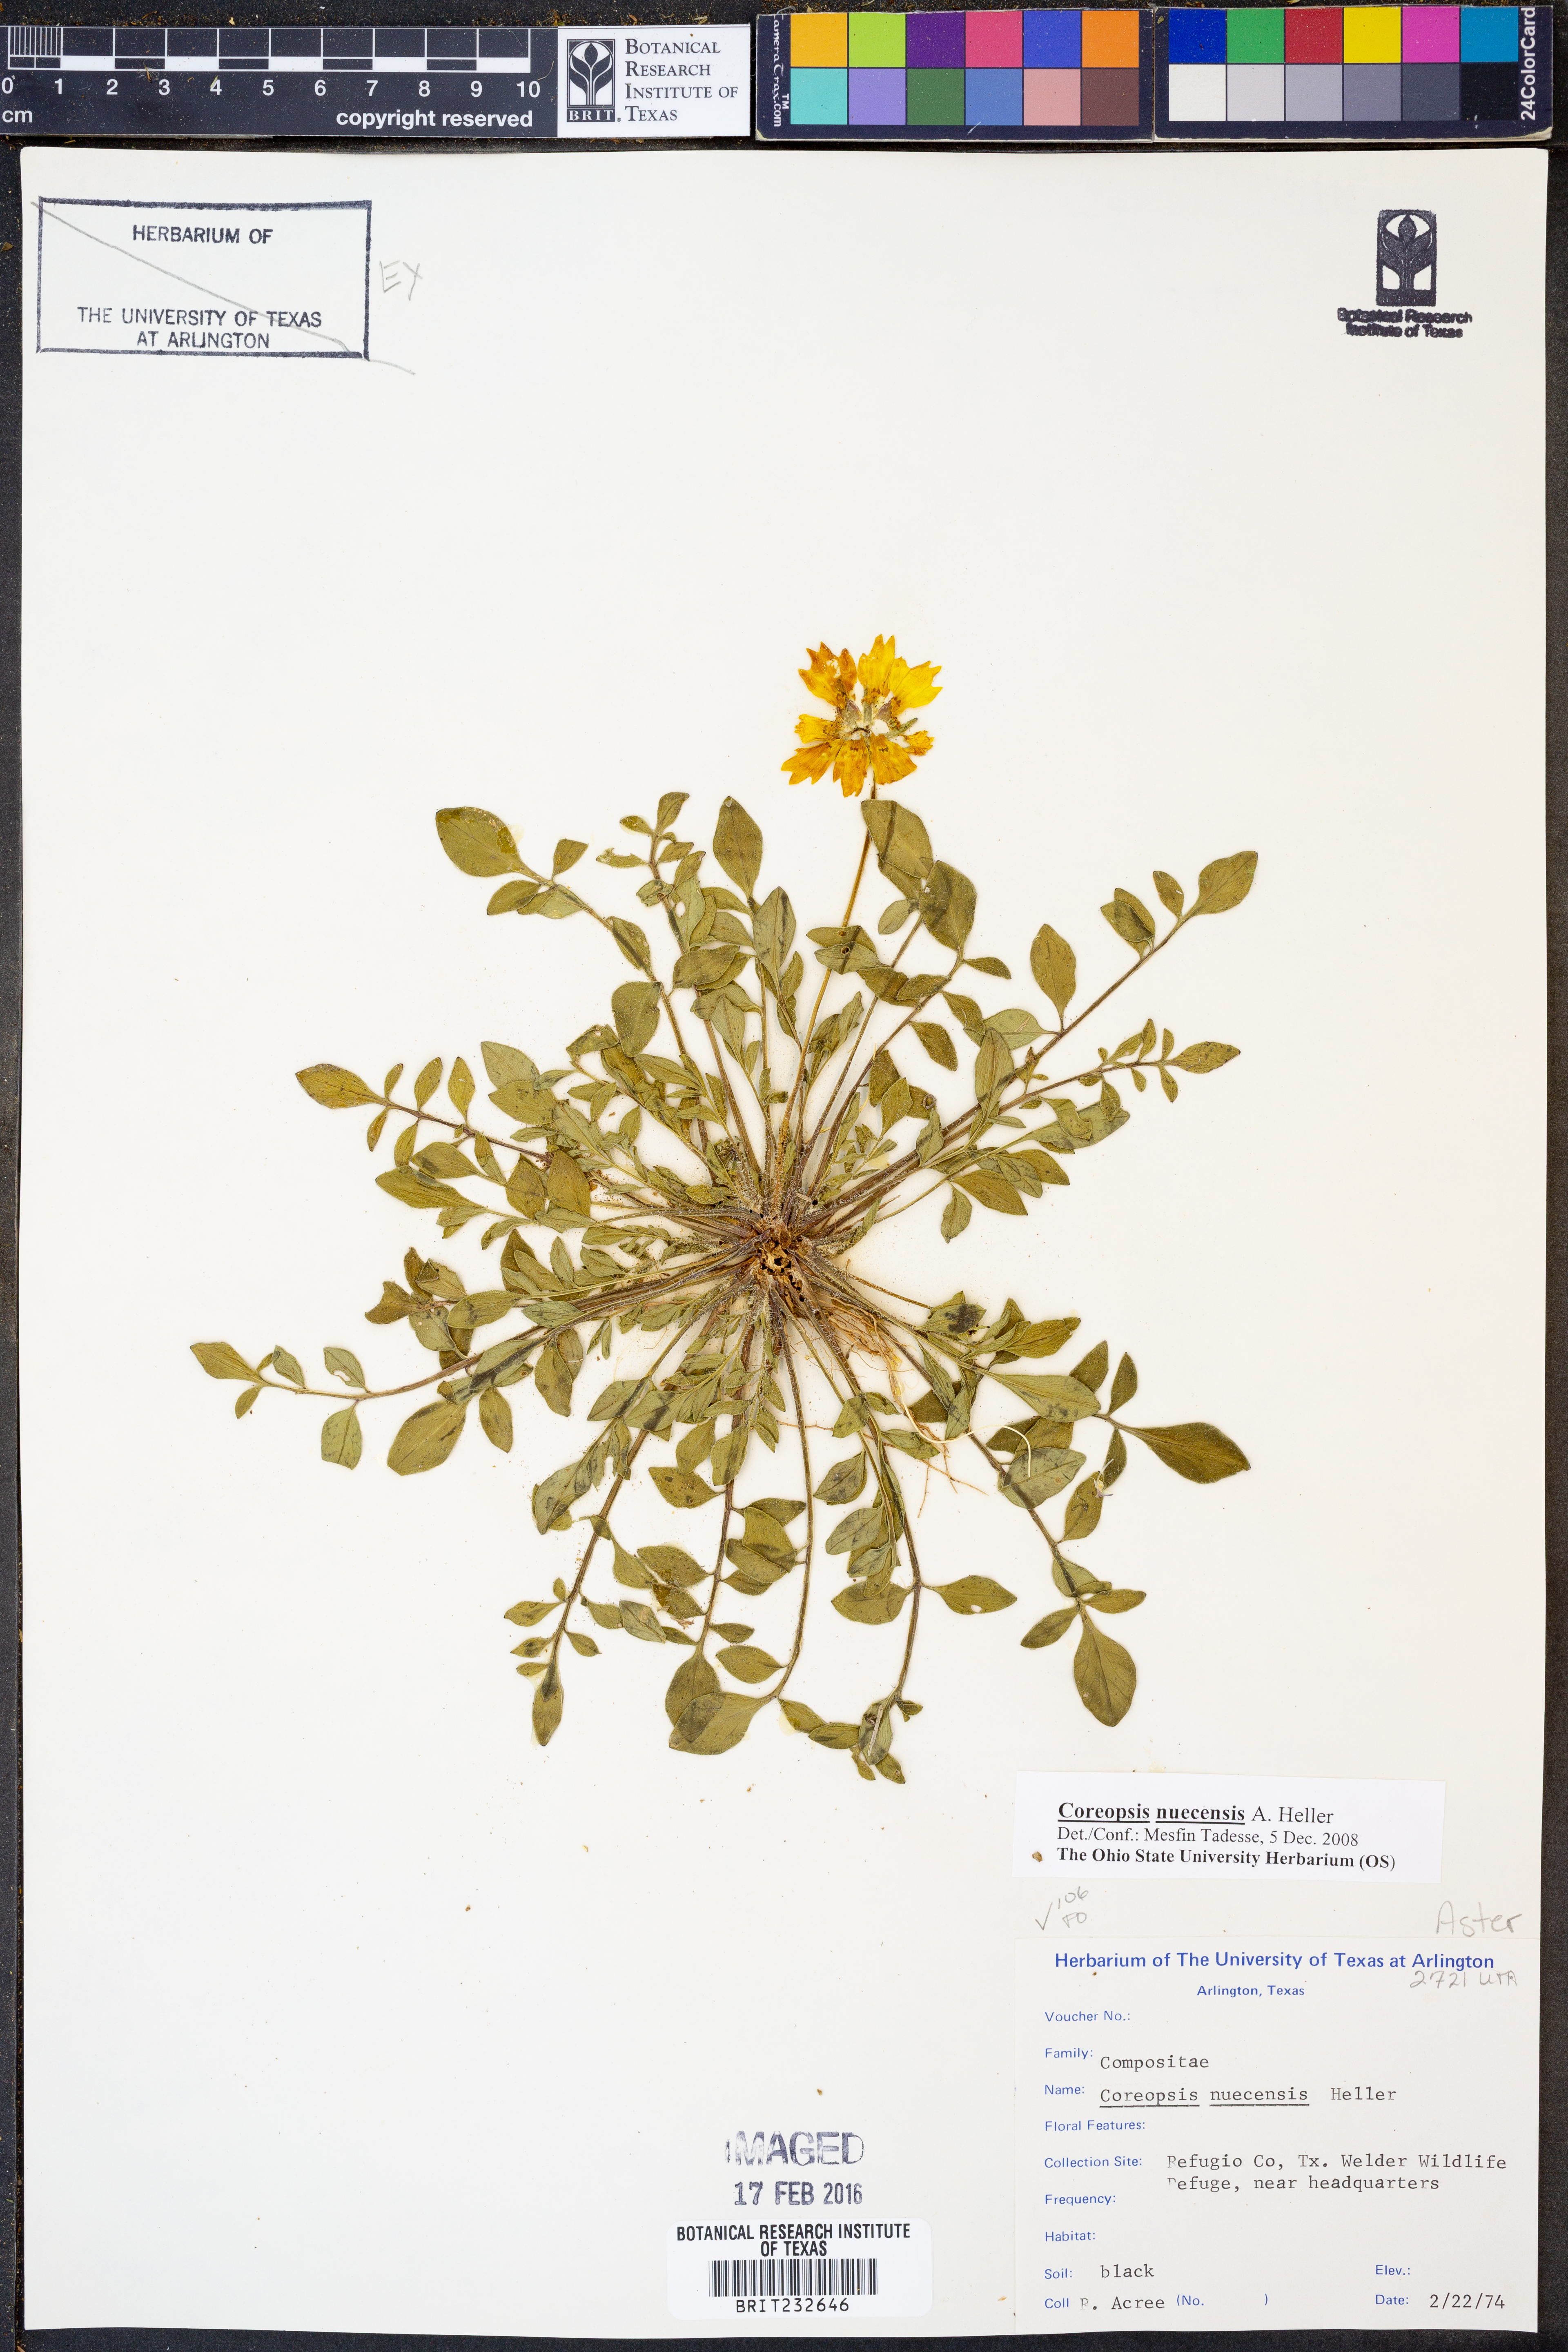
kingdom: Plantae
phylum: Tracheophyta
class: Magnoliopsida
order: Asterales
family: Asteraceae
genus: Coreopsis
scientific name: Coreopsis nuecensis
